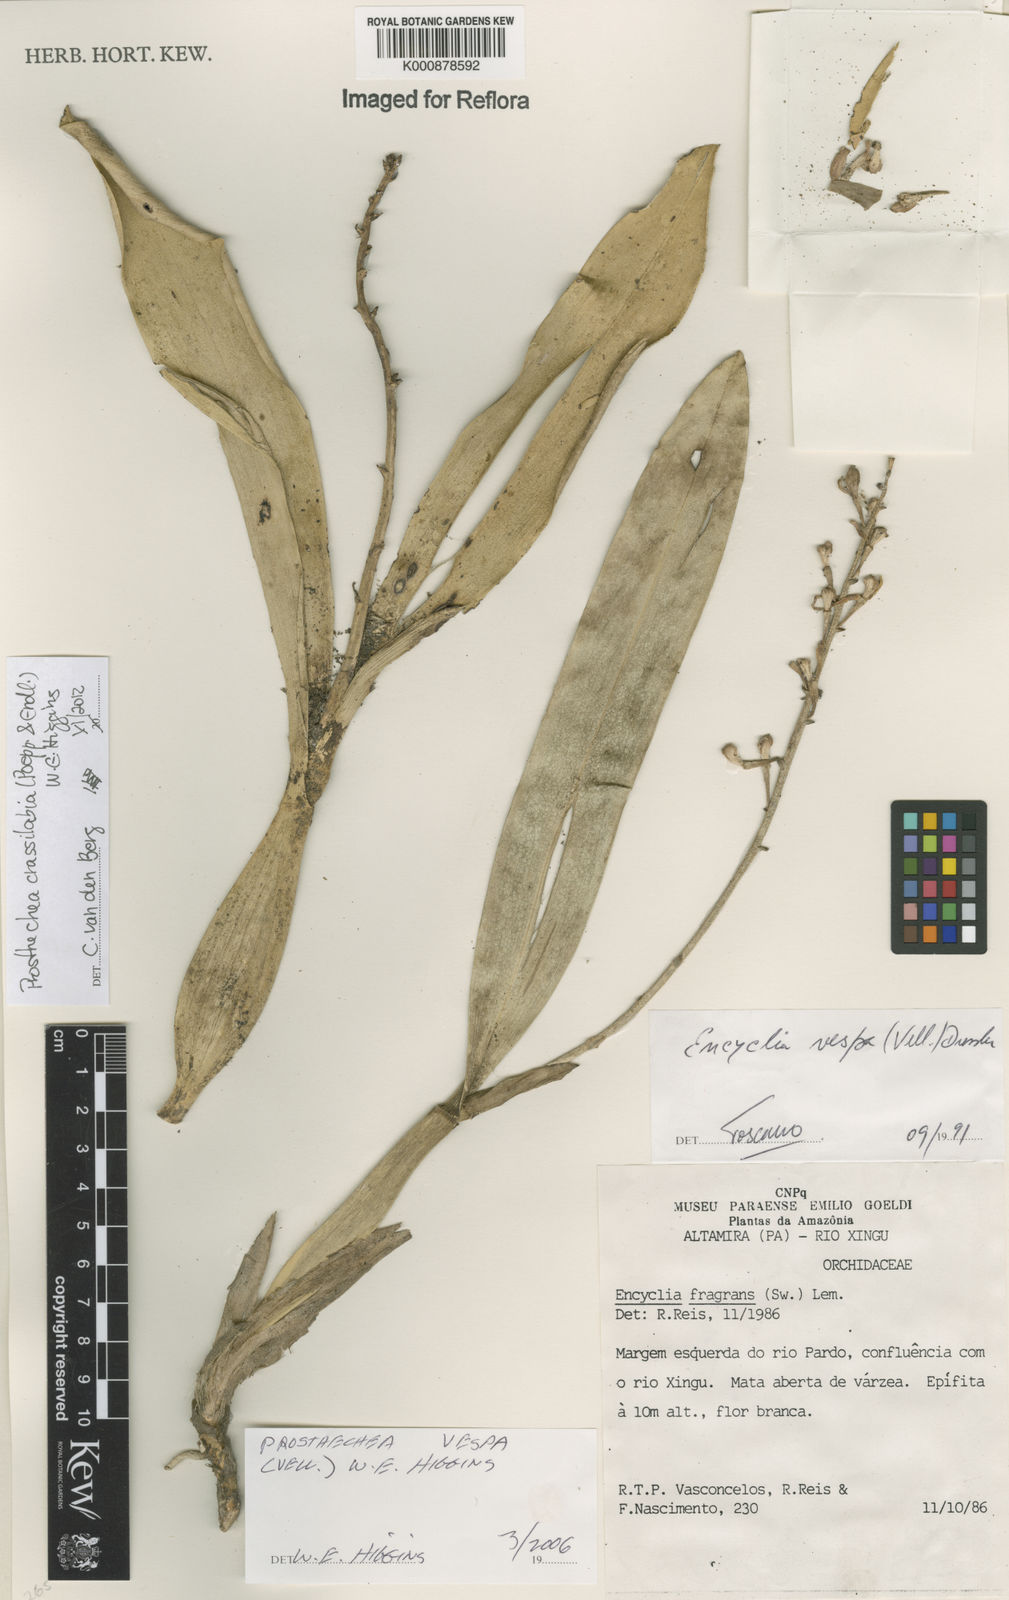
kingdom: Plantae
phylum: Tracheophyta
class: Liliopsida
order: Asparagales
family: Orchidaceae
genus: Prosthechea
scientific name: Prosthechea
